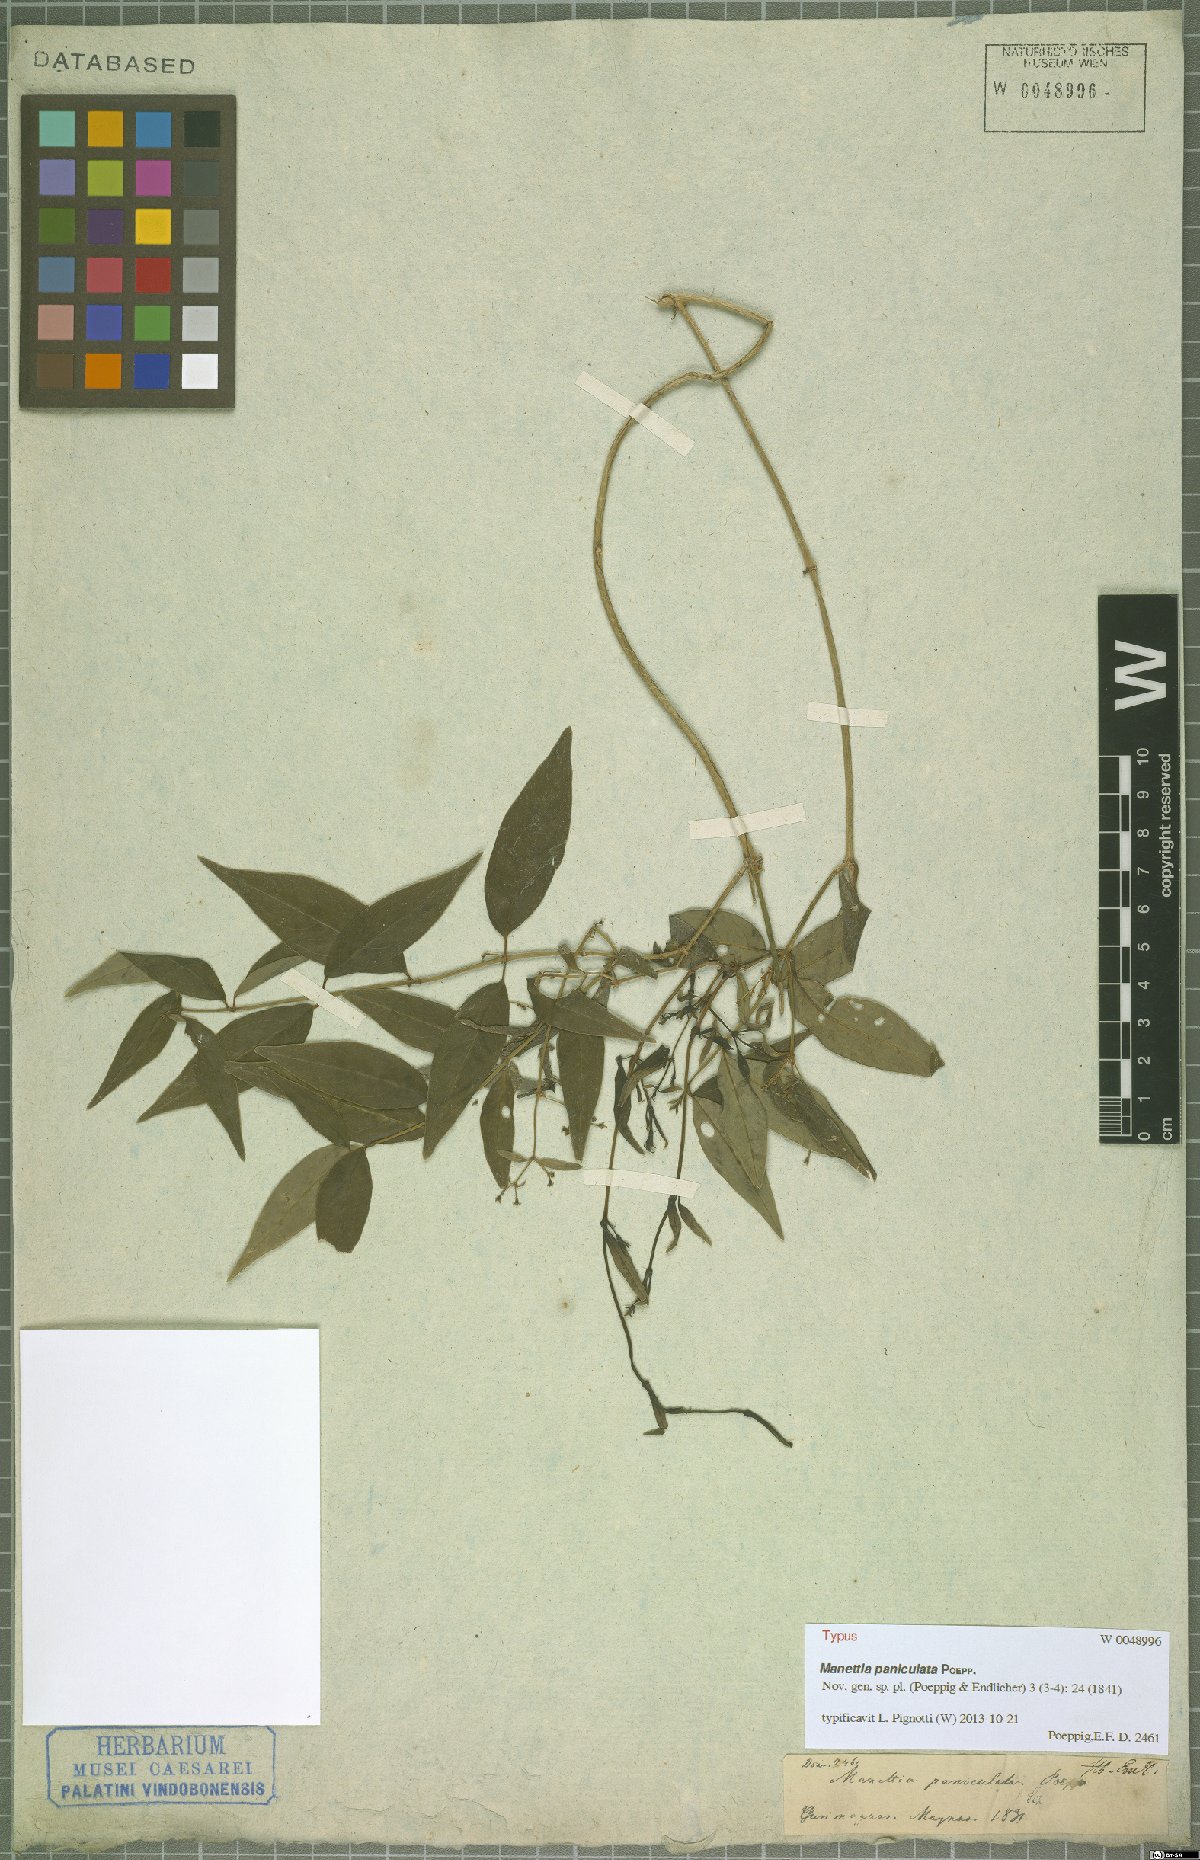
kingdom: Plantae
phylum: Tracheophyta
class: Magnoliopsida
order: Gentianales
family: Rubiaceae
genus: Manettia
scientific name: Manettia paniculata
